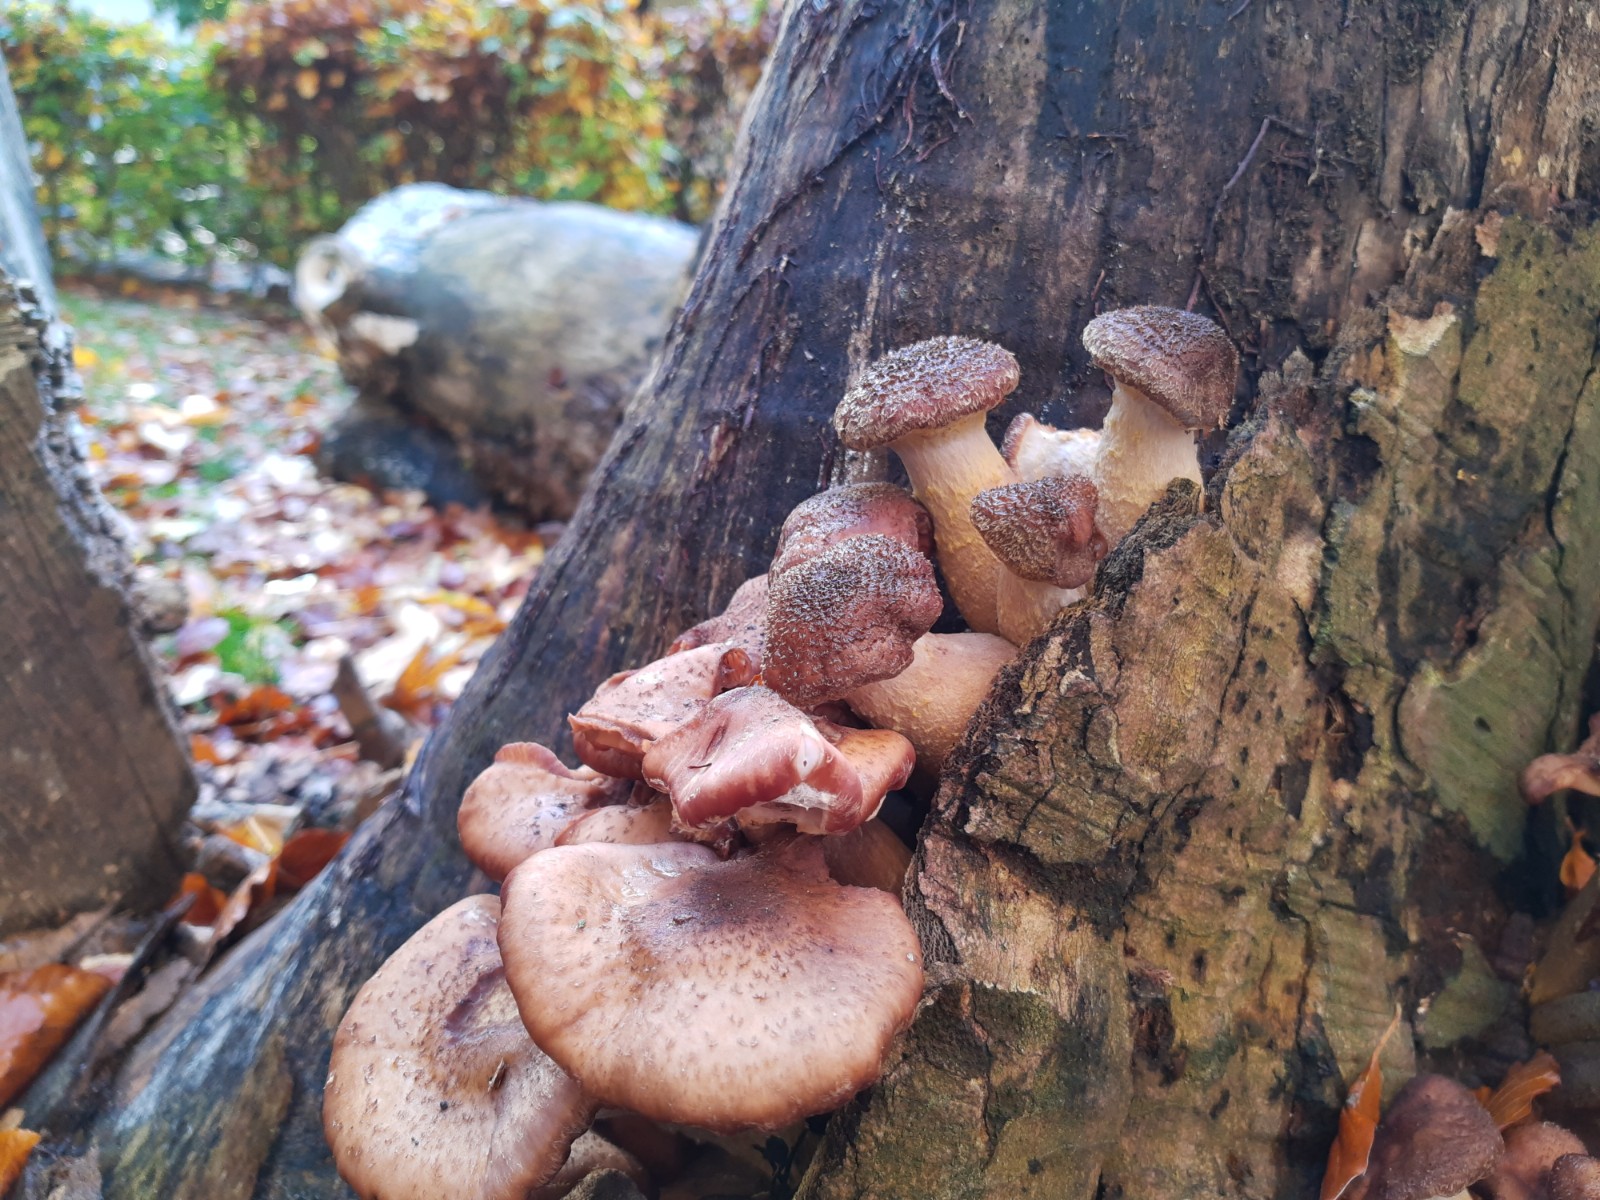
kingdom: Fungi
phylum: Basidiomycota
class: Agaricomycetes
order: Agaricales
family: Physalacriaceae
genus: Armillaria
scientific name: Armillaria lutea
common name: køllestokket honningsvamp
